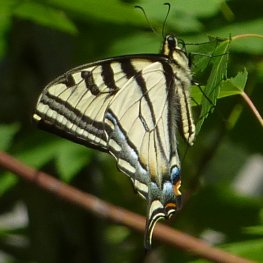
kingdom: Animalia
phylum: Arthropoda
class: Insecta
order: Lepidoptera
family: Papilionidae
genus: Pterourus
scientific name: Pterourus rutulus
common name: Western Tiger Swallowtail
